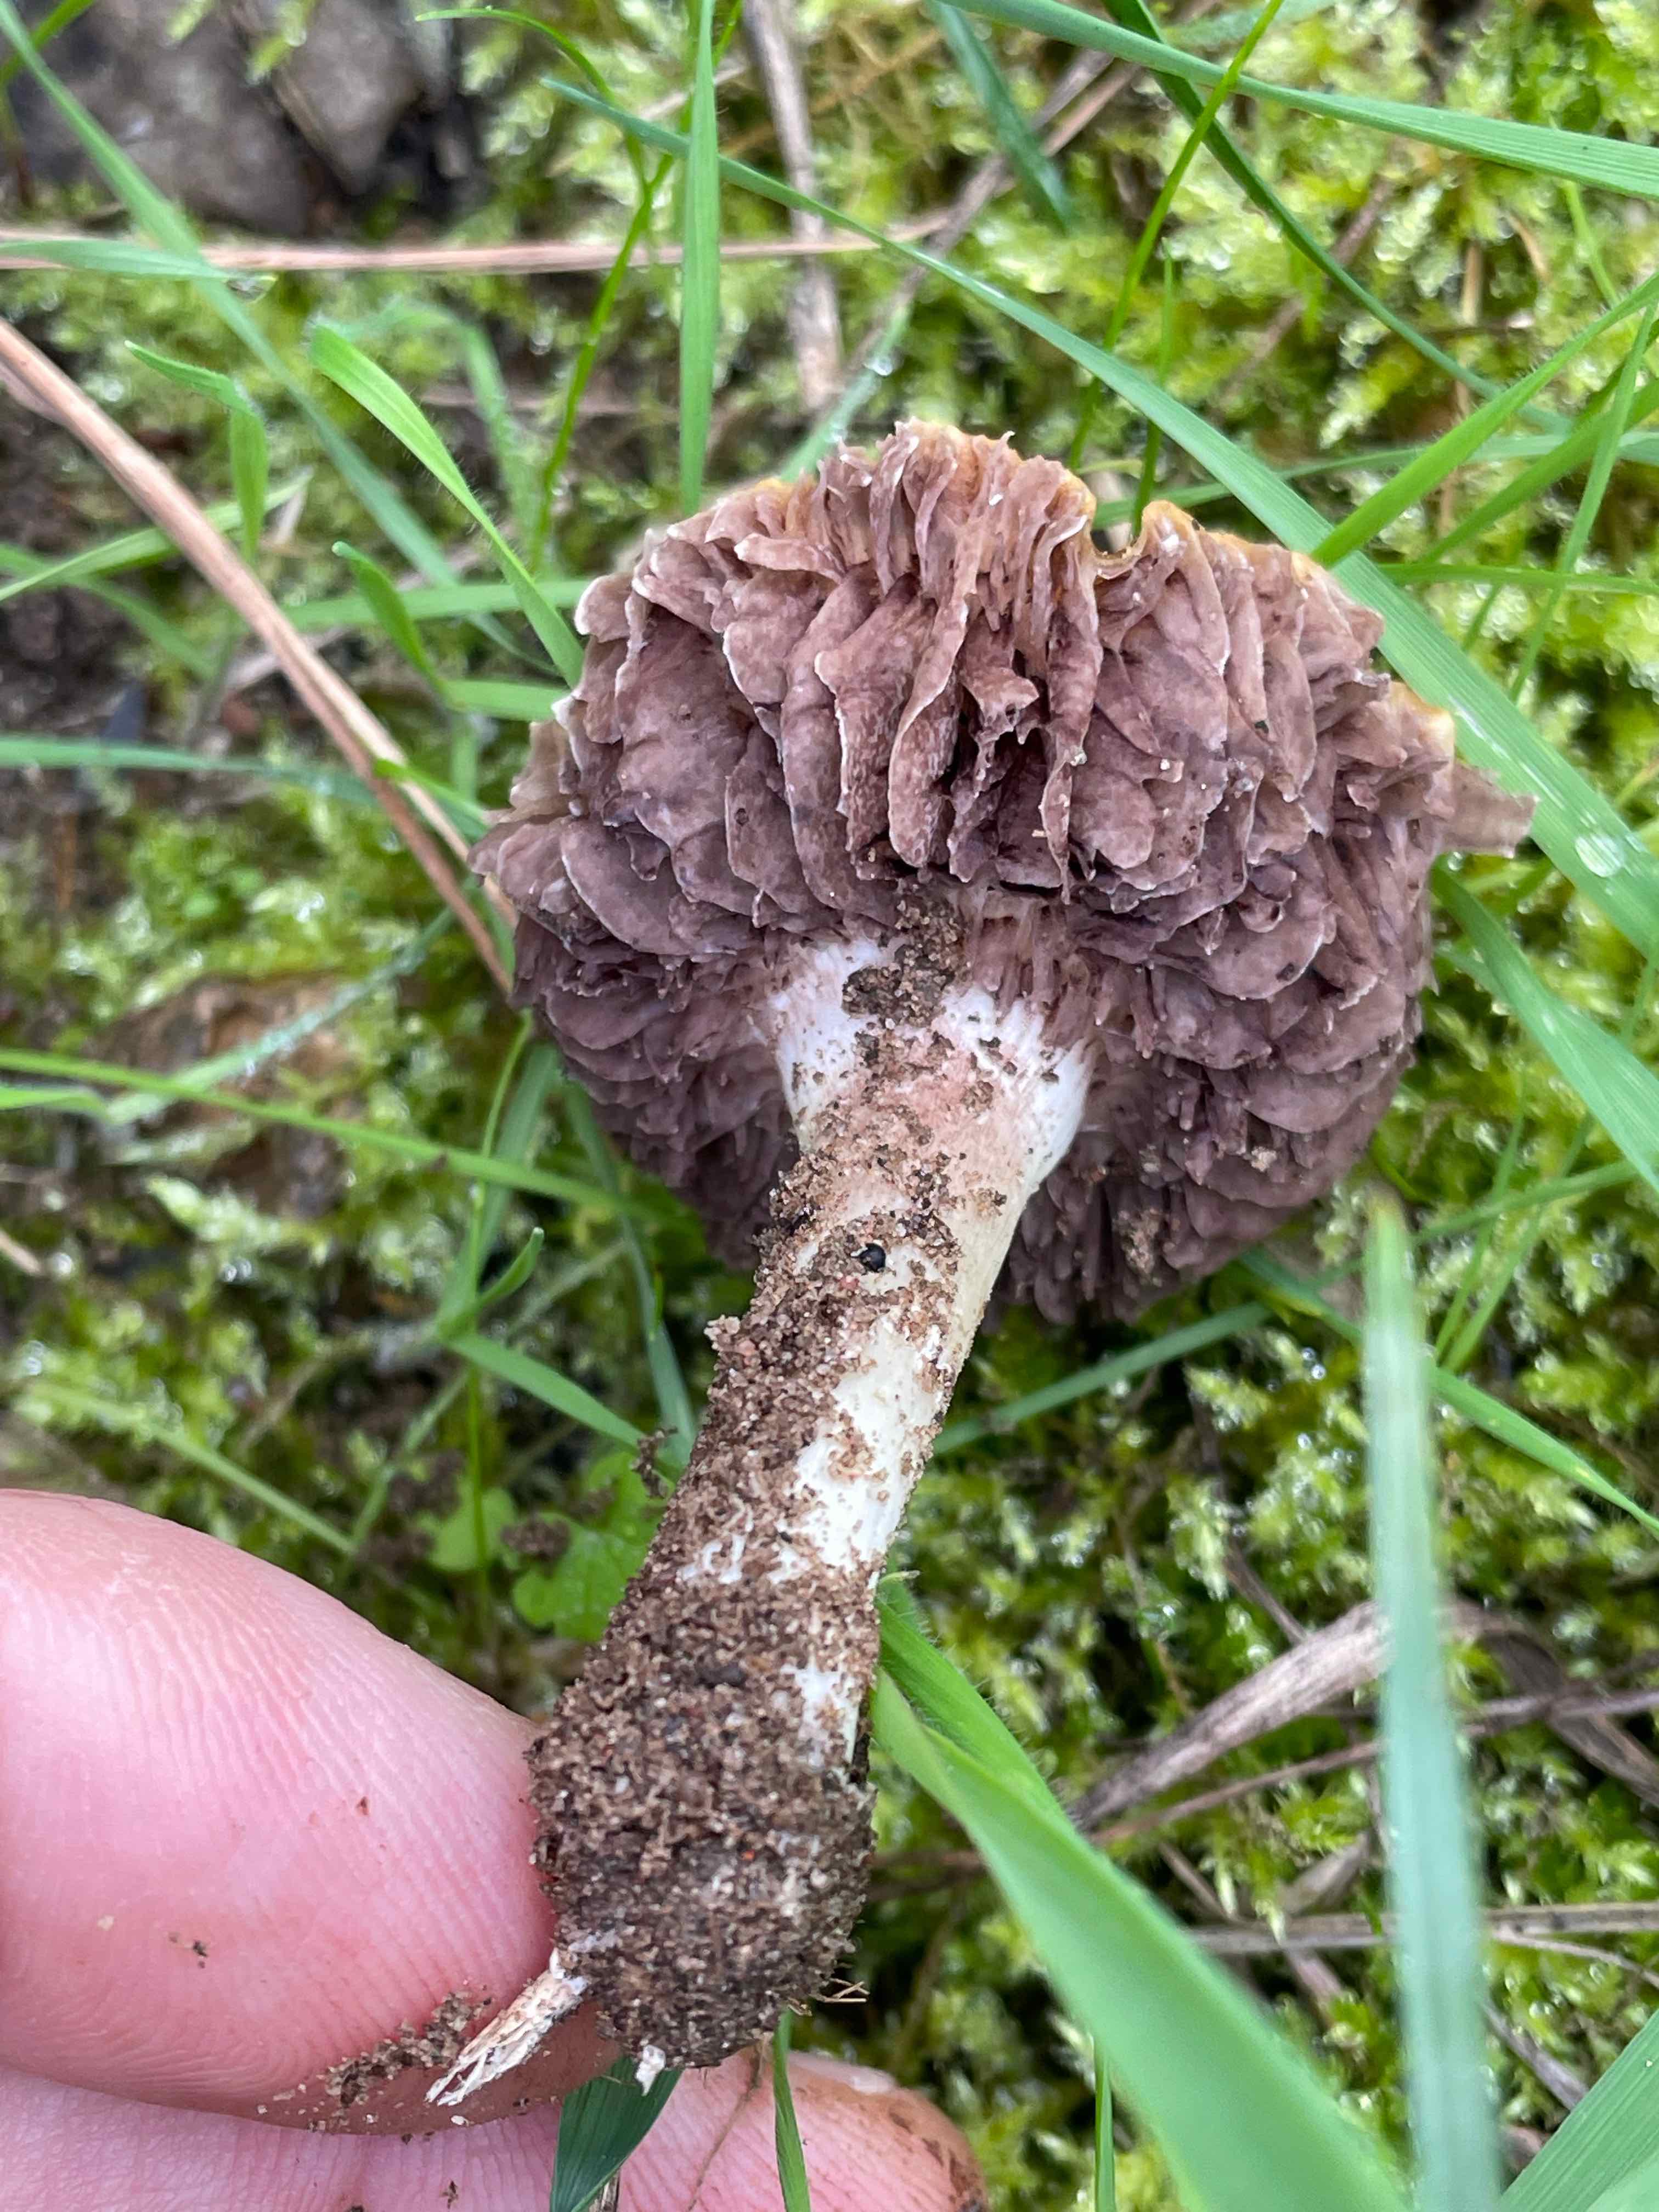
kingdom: Fungi
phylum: Basidiomycota
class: Agaricomycetes
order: Agaricales
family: Hymenogastraceae
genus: Psilocybe
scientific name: Psilocybe coronilla
